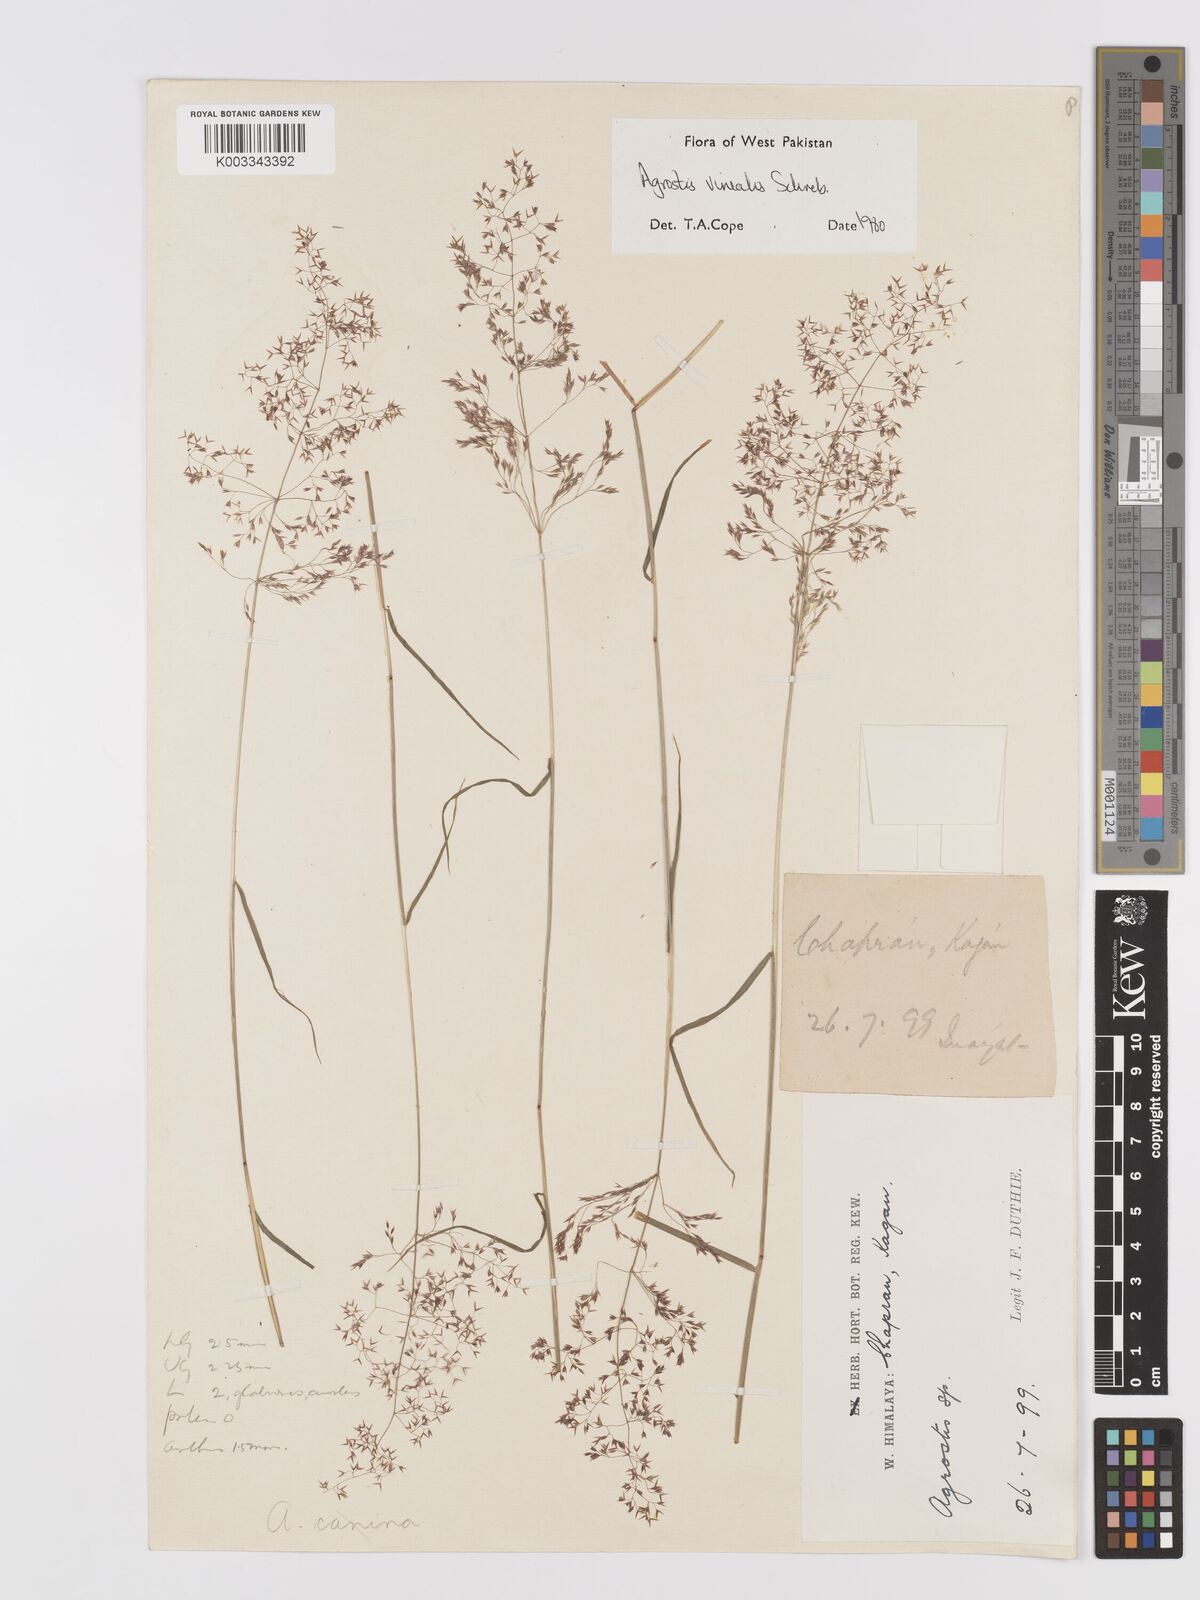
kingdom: Plantae
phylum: Tracheophyta
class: Liliopsida
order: Poales
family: Poaceae
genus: Agrostis
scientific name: Agrostis vinealis
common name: Brown bent
